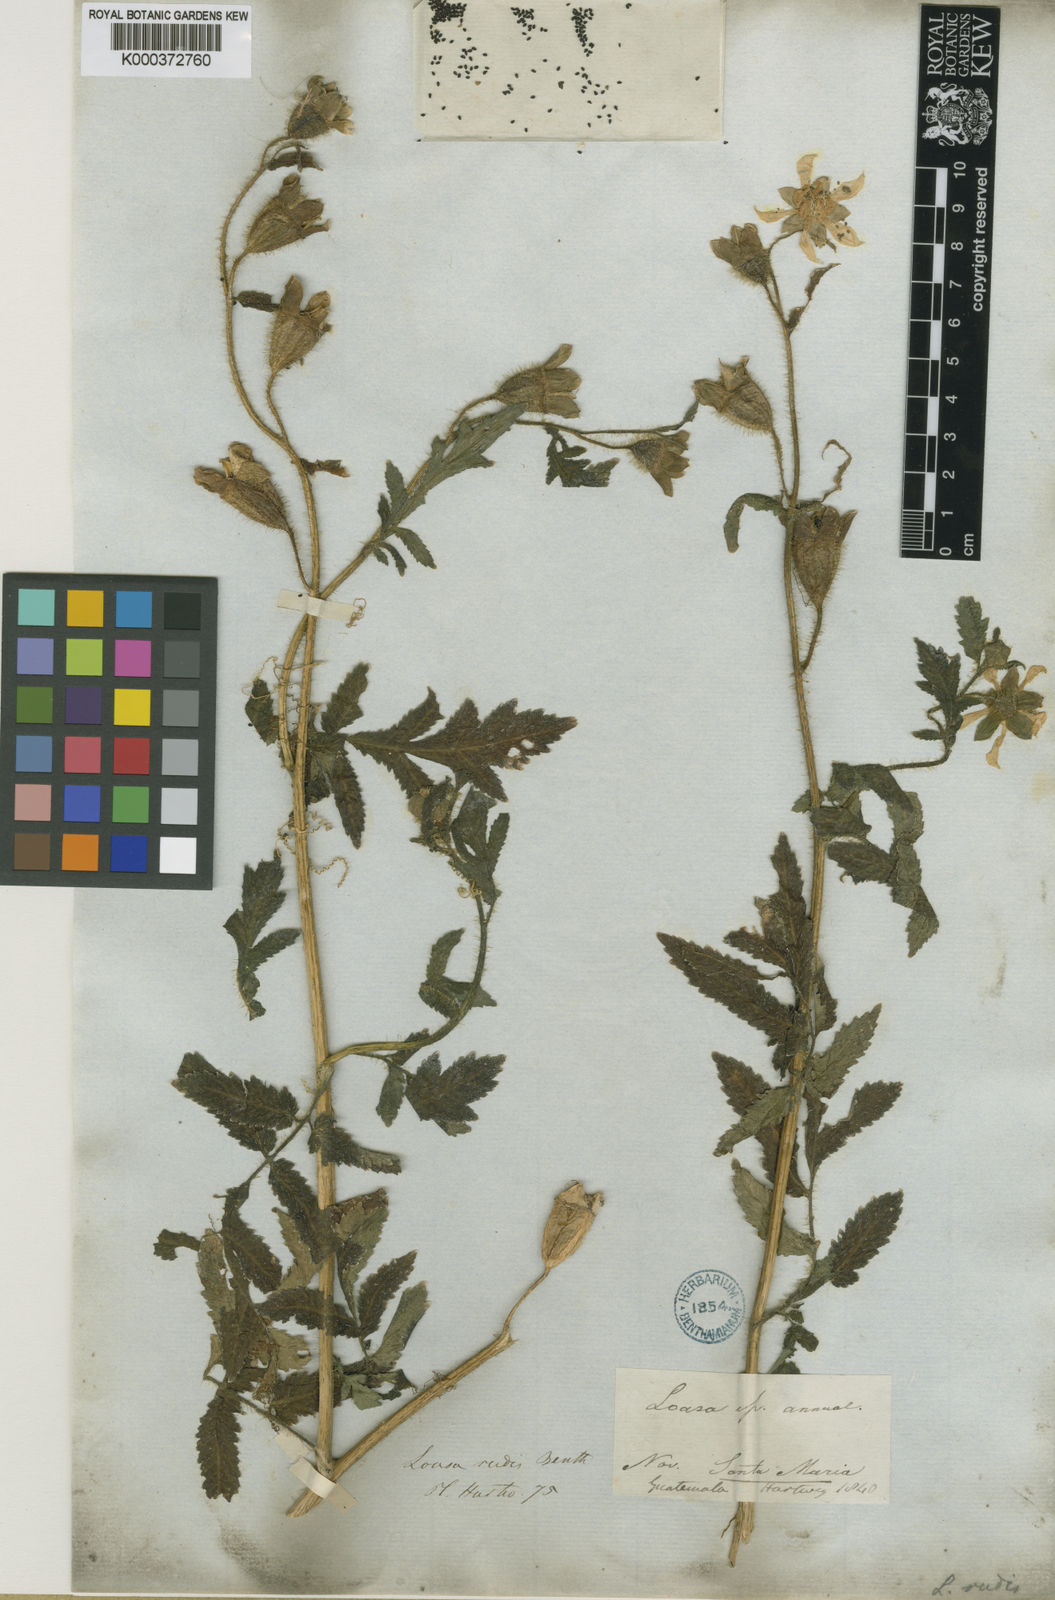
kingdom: Plantae
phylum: Tracheophyta
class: Magnoliopsida
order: Cornales
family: Loasaceae
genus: Nasa
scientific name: Nasa triphylla
